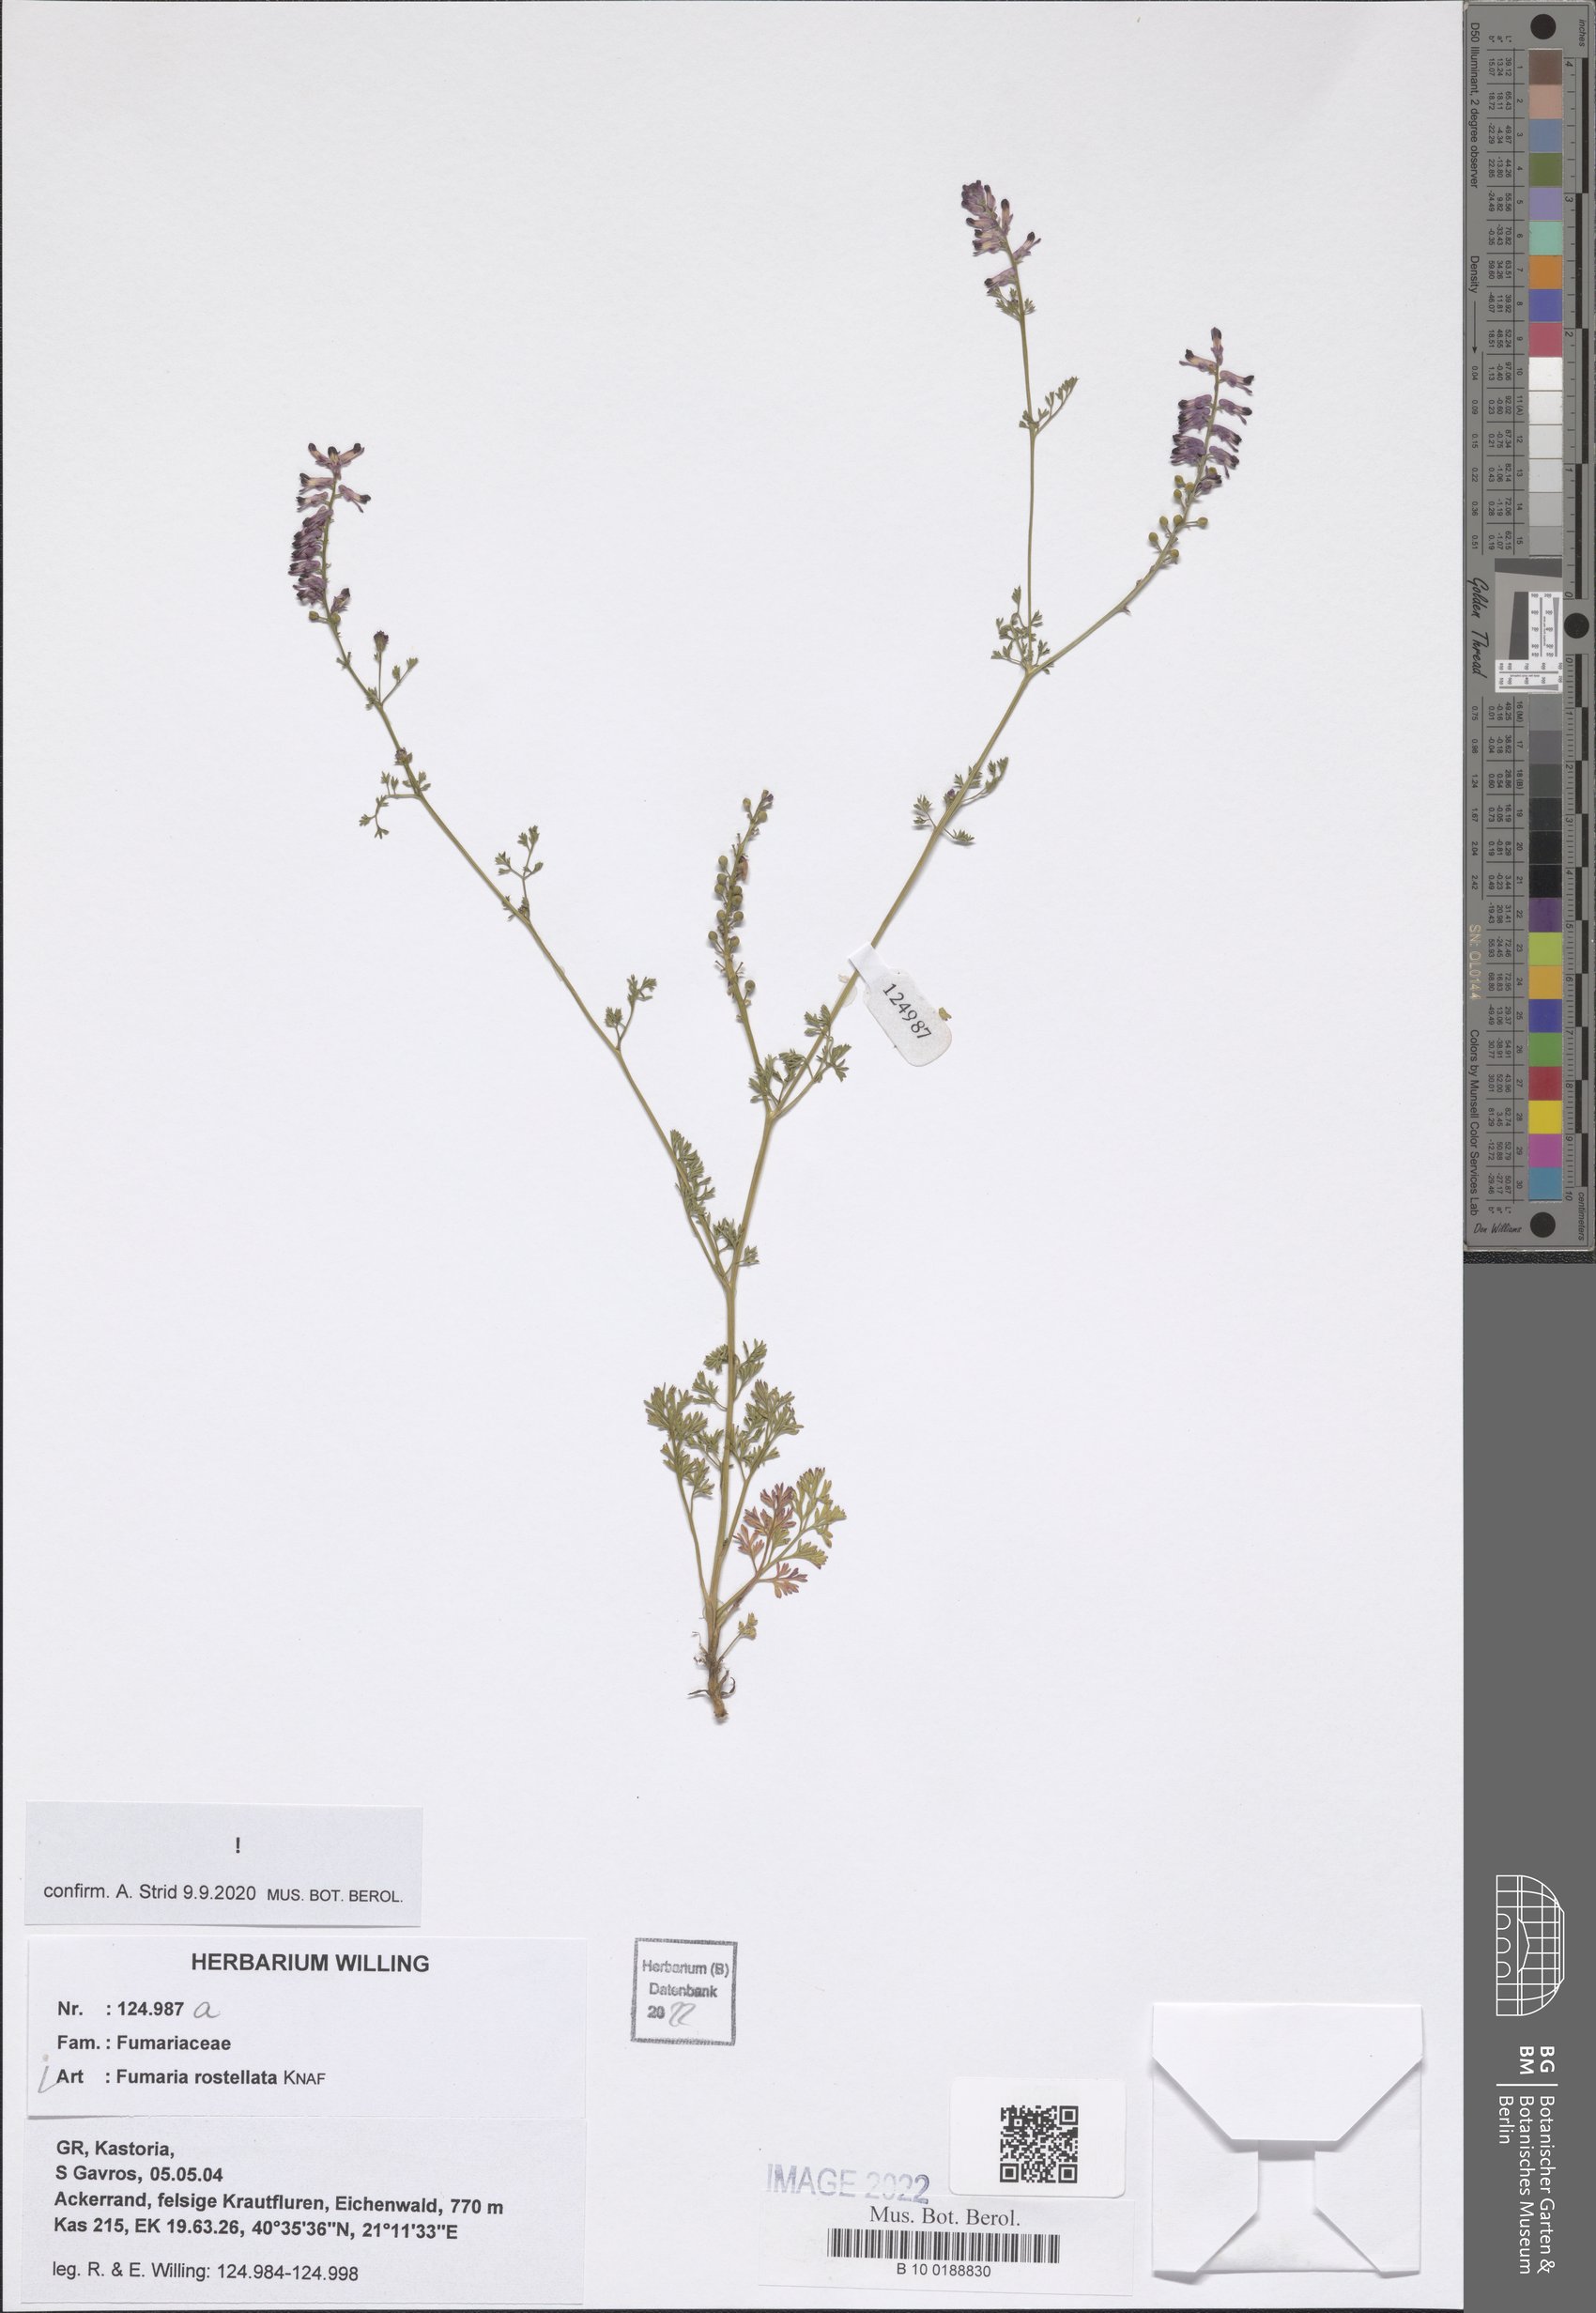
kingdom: Plantae
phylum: Tracheophyta
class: Magnoliopsida
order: Ranunculales
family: Papaveraceae
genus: Fumaria
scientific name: Fumaria rostellata
